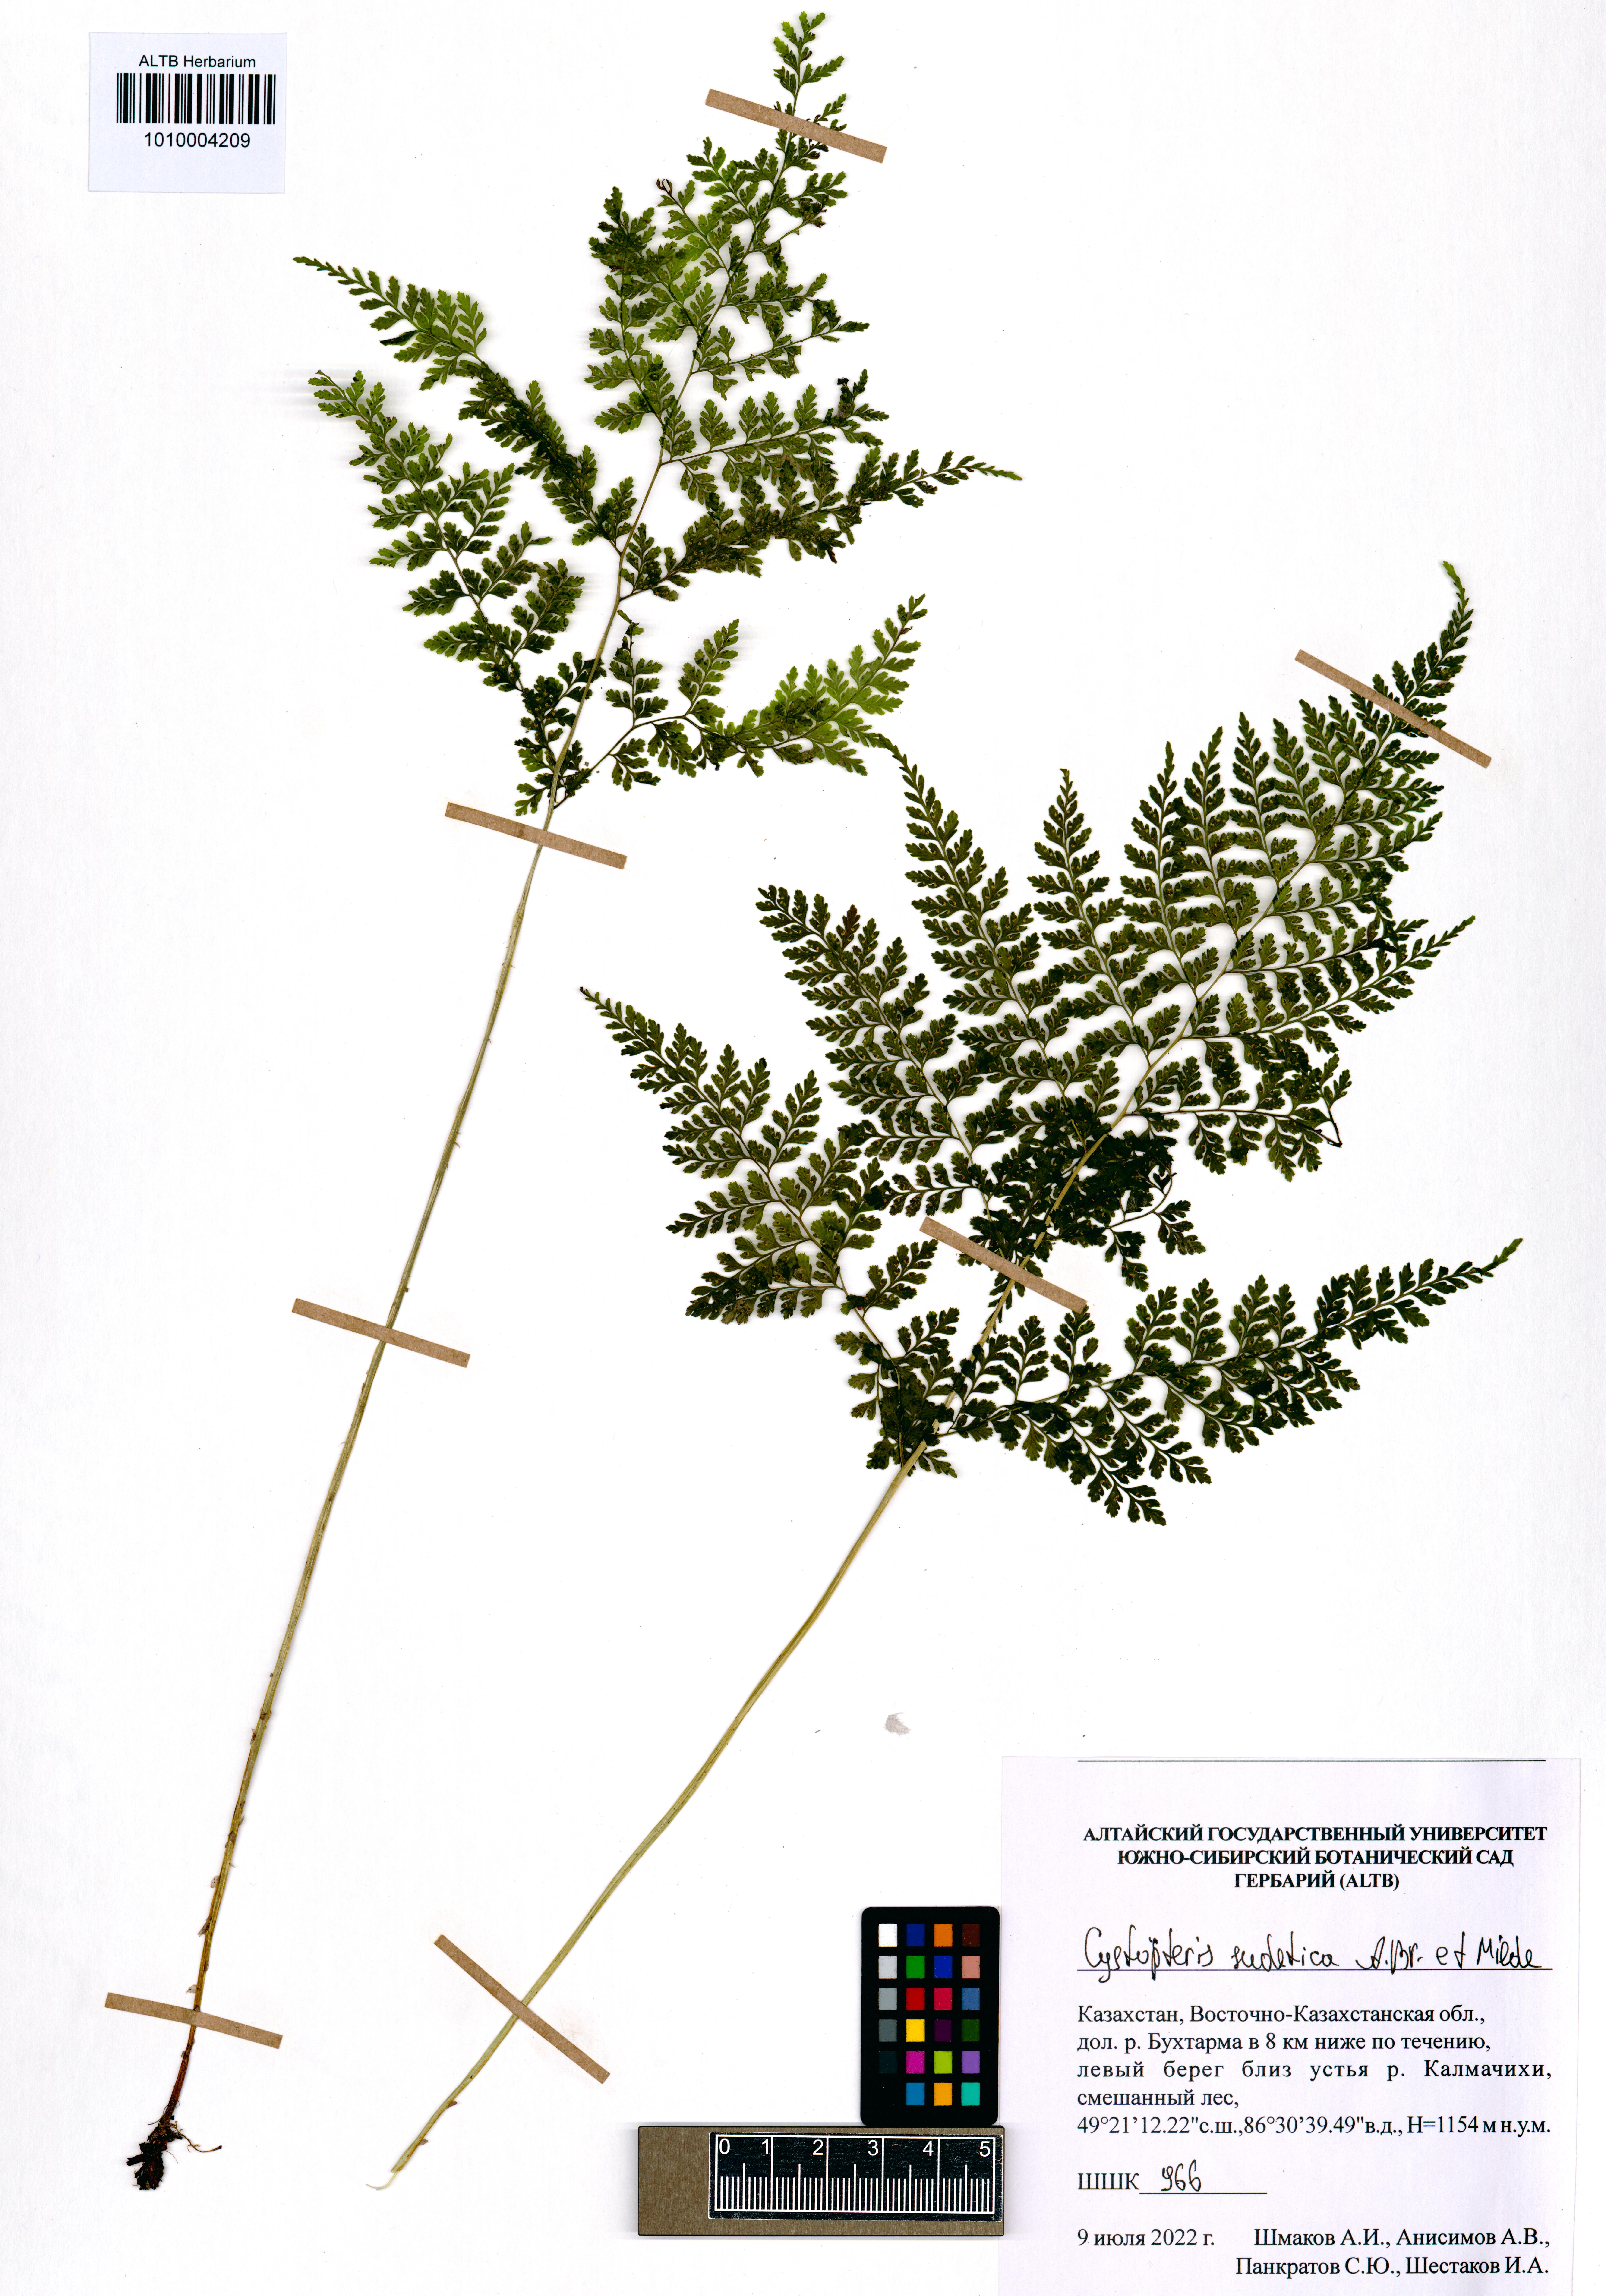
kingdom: Plantae
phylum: Tracheophyta
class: Polypodiopsida
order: Polypodiales
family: Cystopteridaceae
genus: Cystopteris
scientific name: Cystopteris sudetica
